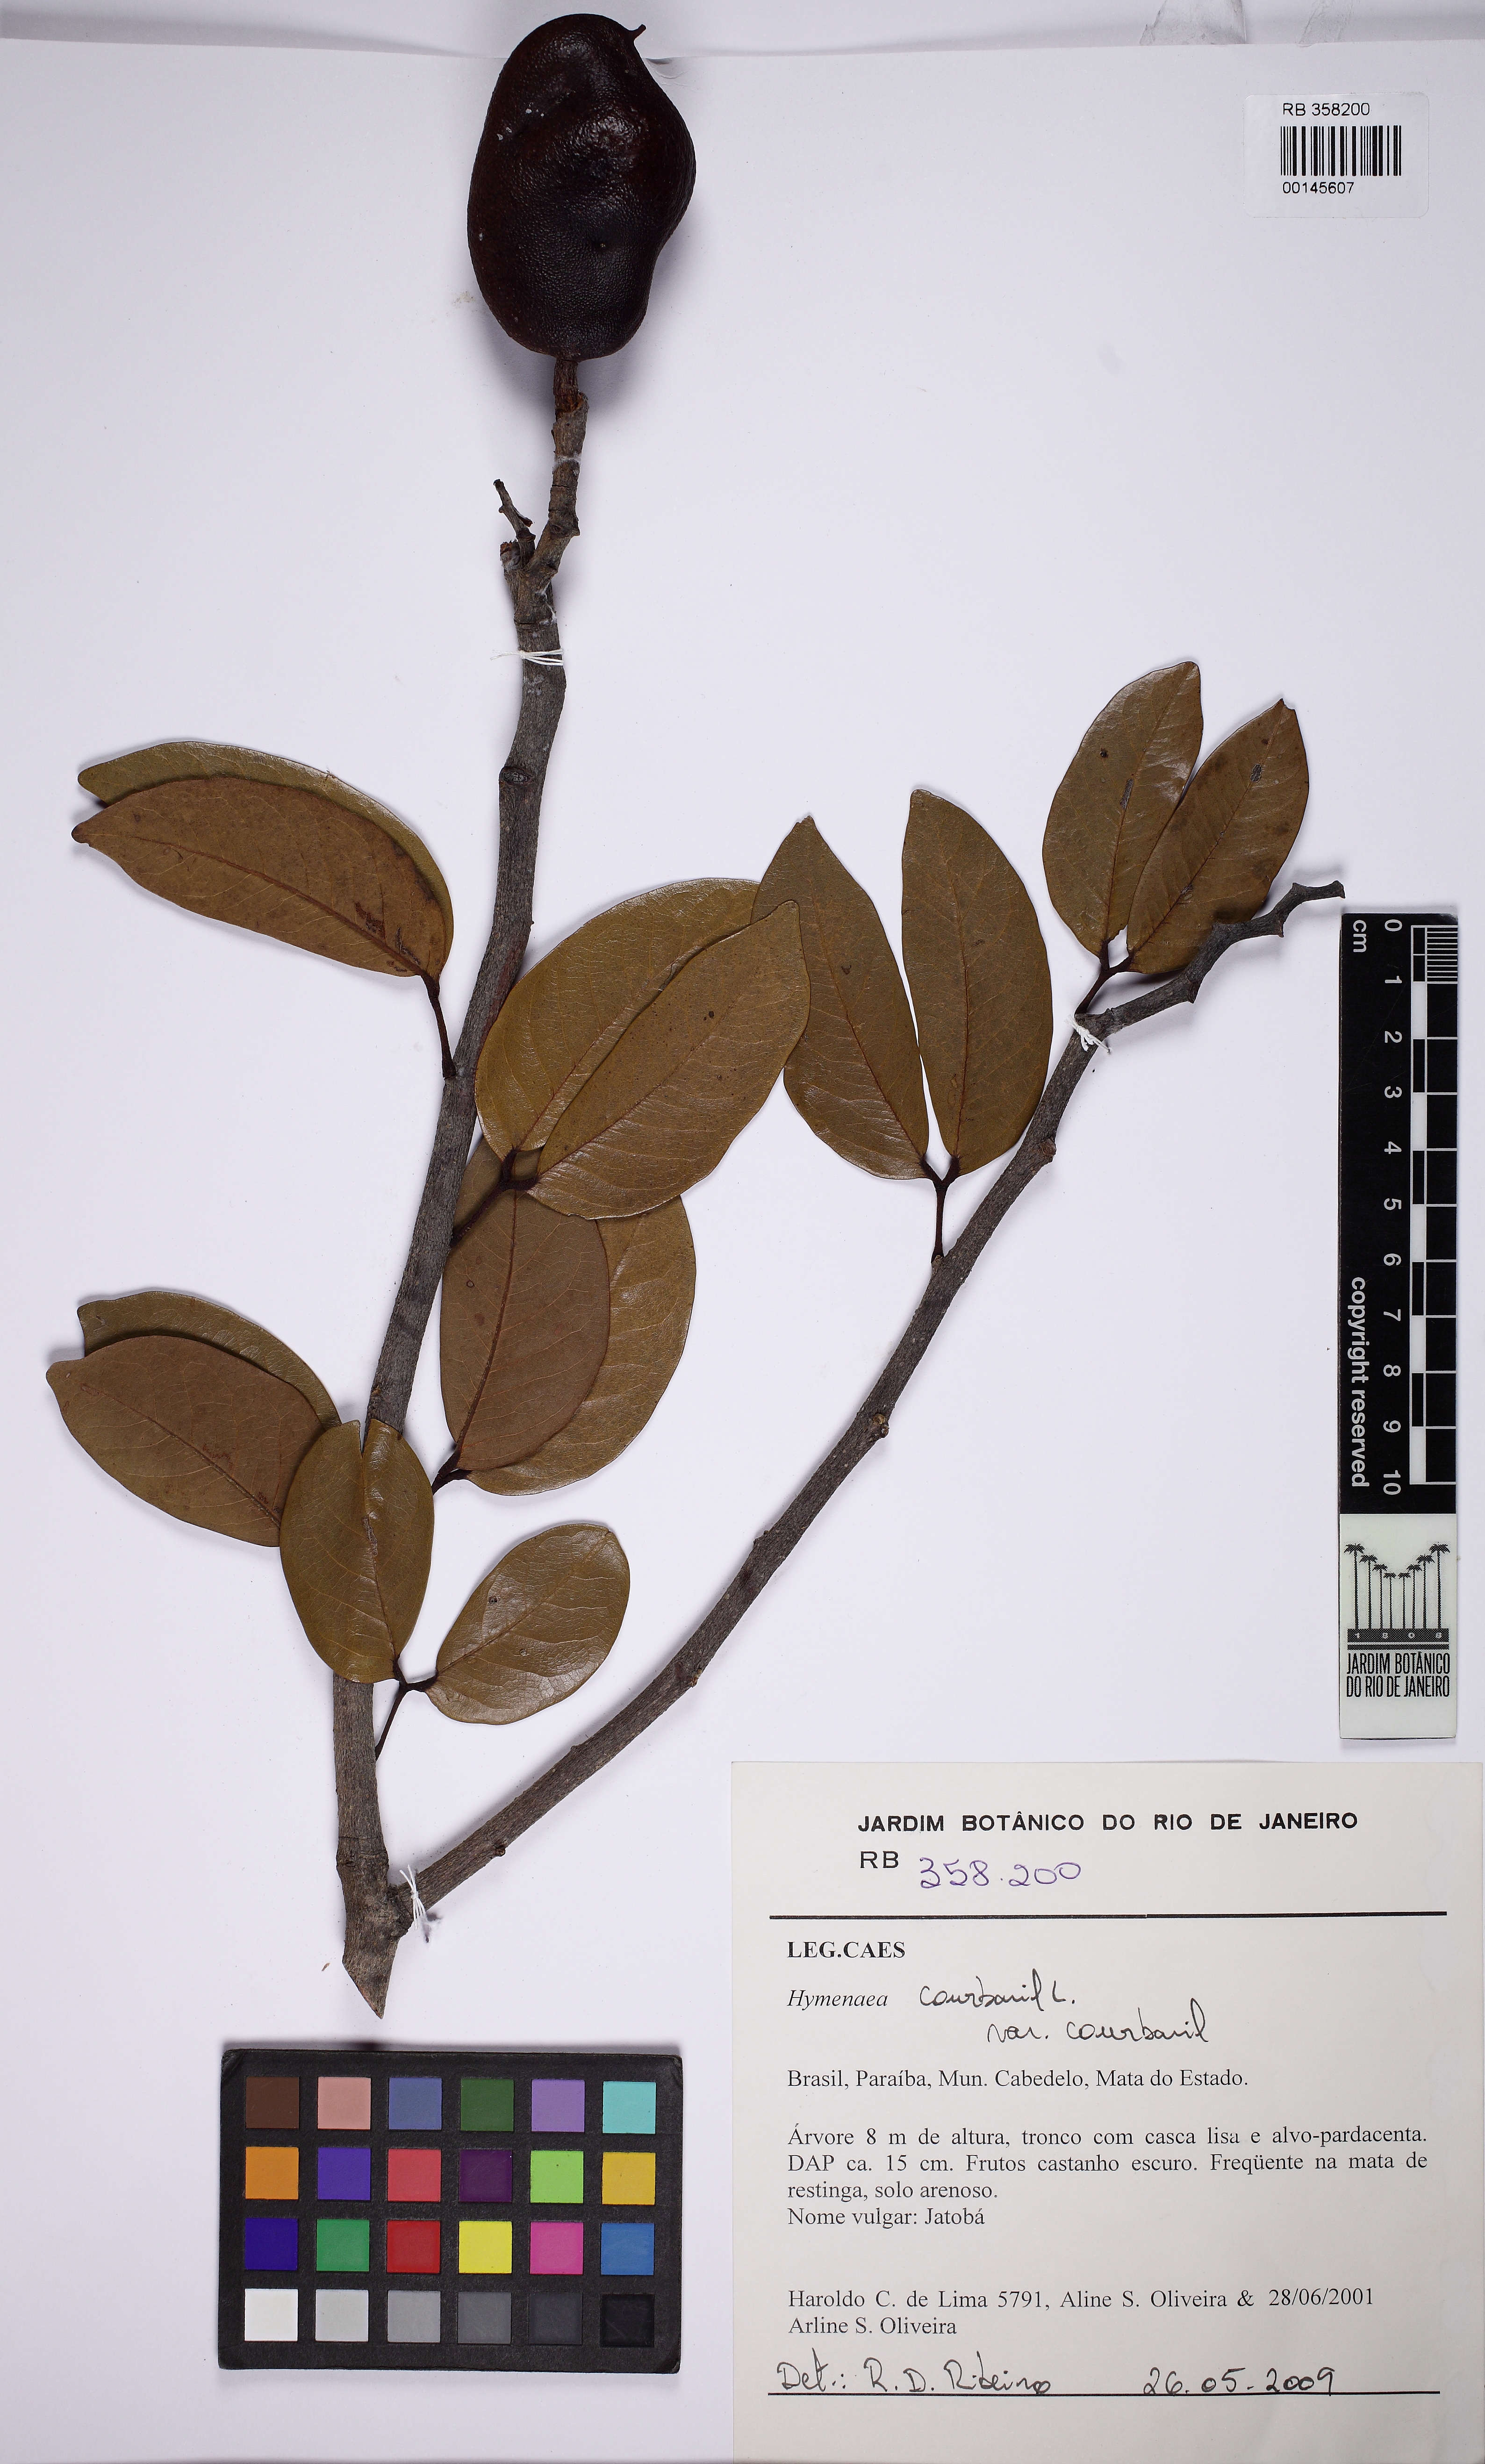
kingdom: Plantae
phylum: Tracheophyta
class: Magnoliopsida
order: Fabales
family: Fabaceae
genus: Hymenaea
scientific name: Hymenaea courbaril
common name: Brazilian copal
